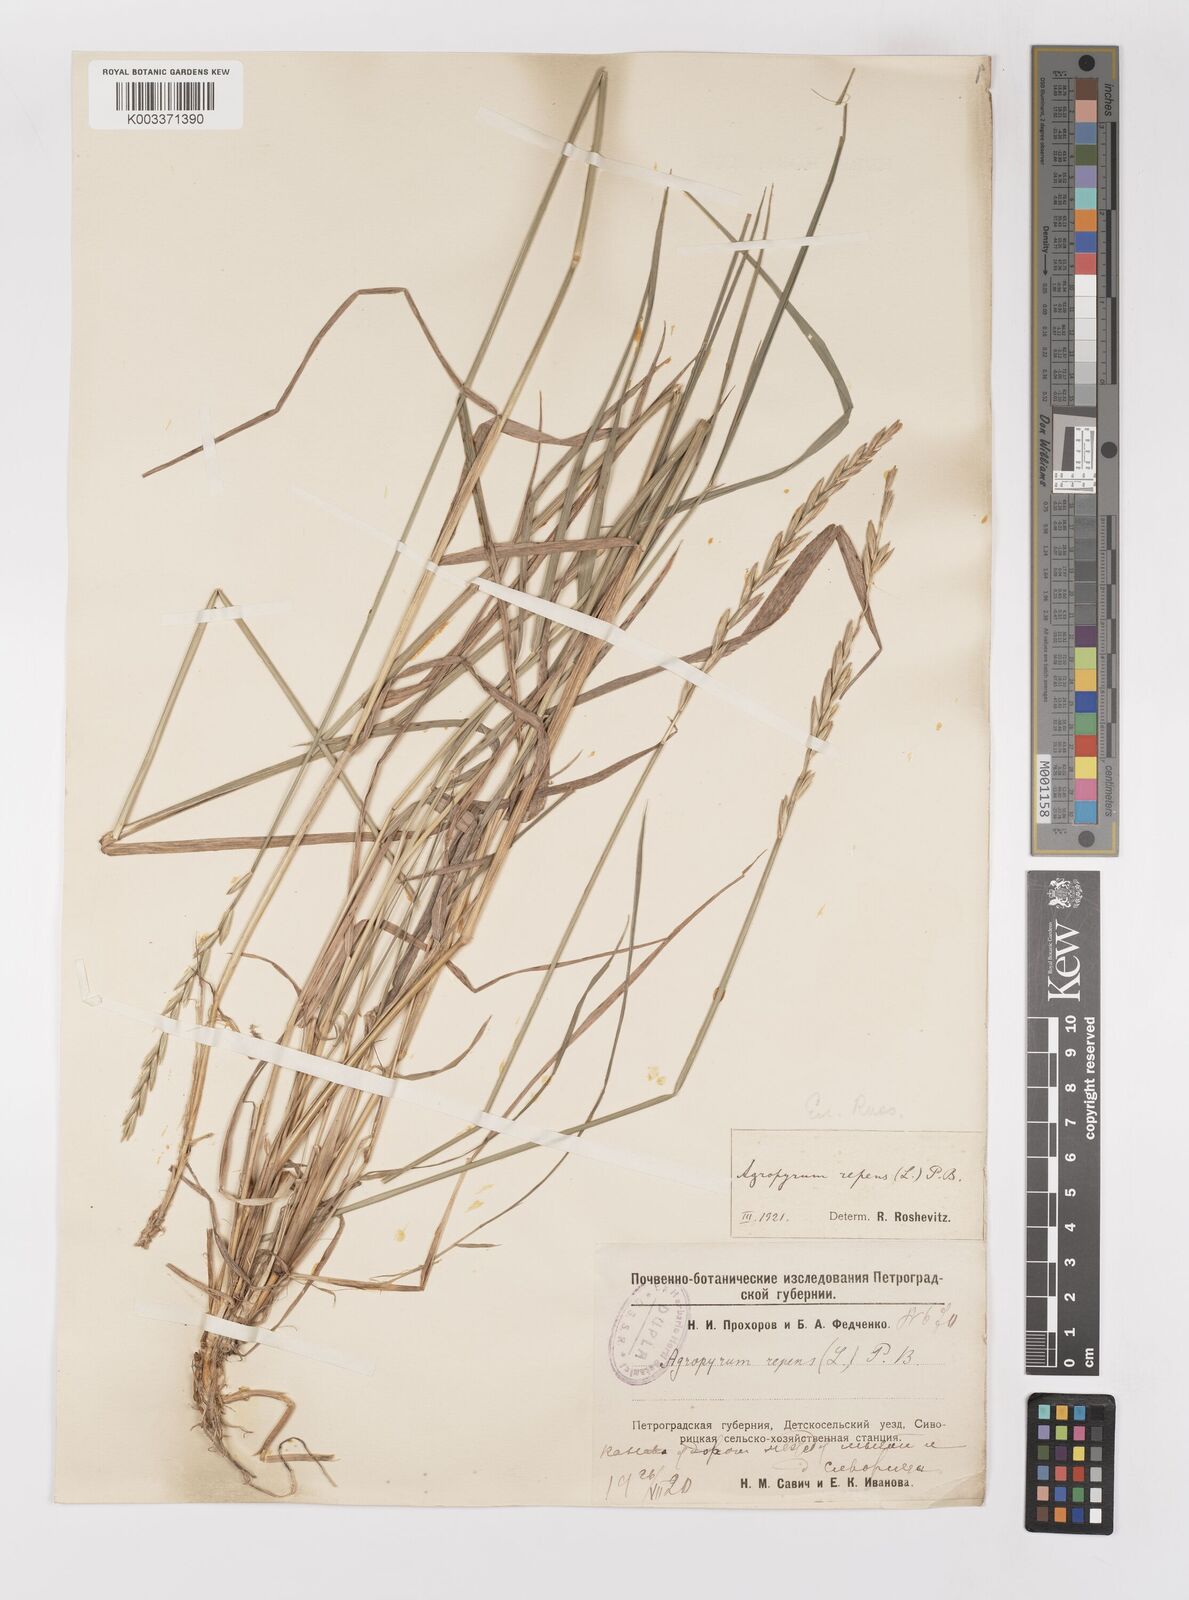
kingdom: Plantae
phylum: Tracheophyta
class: Liliopsida
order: Poales
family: Poaceae
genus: Elymus
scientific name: Elymus repens
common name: Quackgrass
